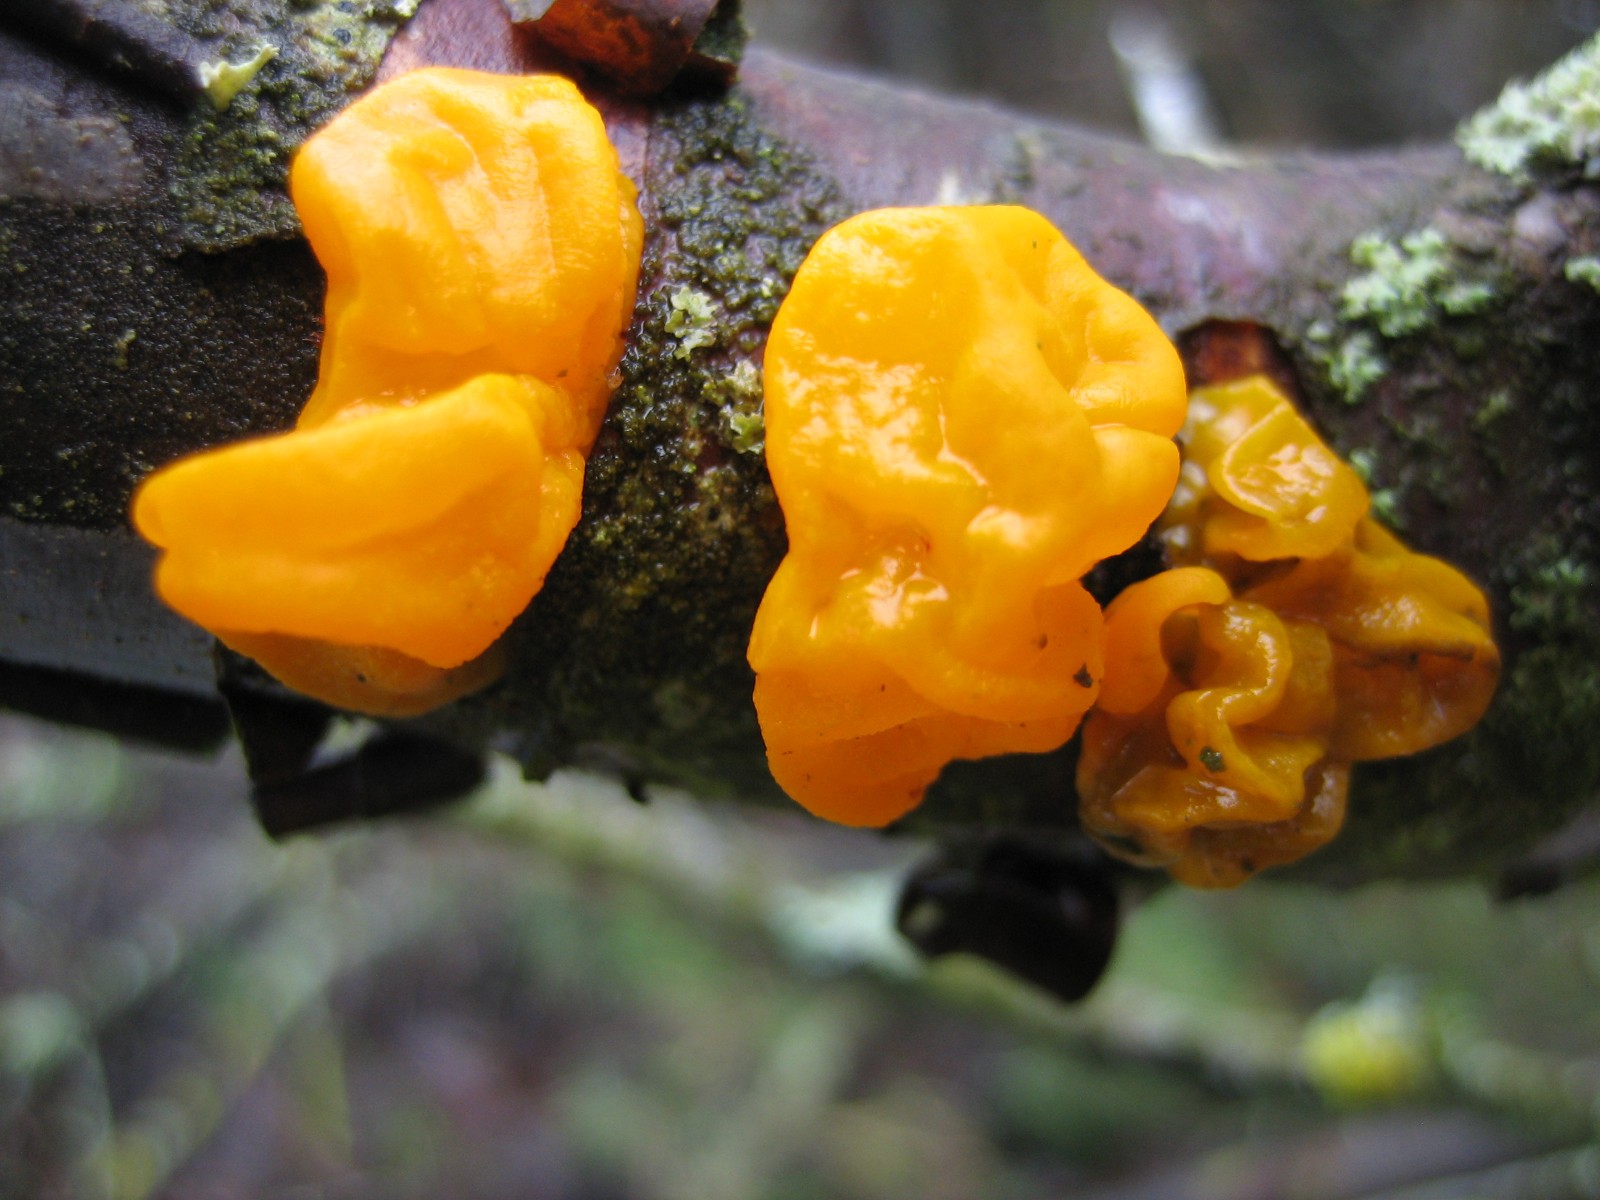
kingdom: Fungi
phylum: Basidiomycota
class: Tremellomycetes
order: Tremellales
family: Tremellaceae
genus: Tremella
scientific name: Tremella mesenterica
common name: gul bævresvamp
